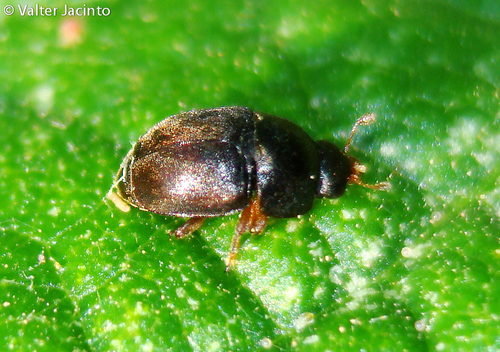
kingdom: Animalia
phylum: Arthropoda
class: Insecta
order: Coleoptera
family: Nitidulidae
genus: Meligethes
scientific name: Meligethes
